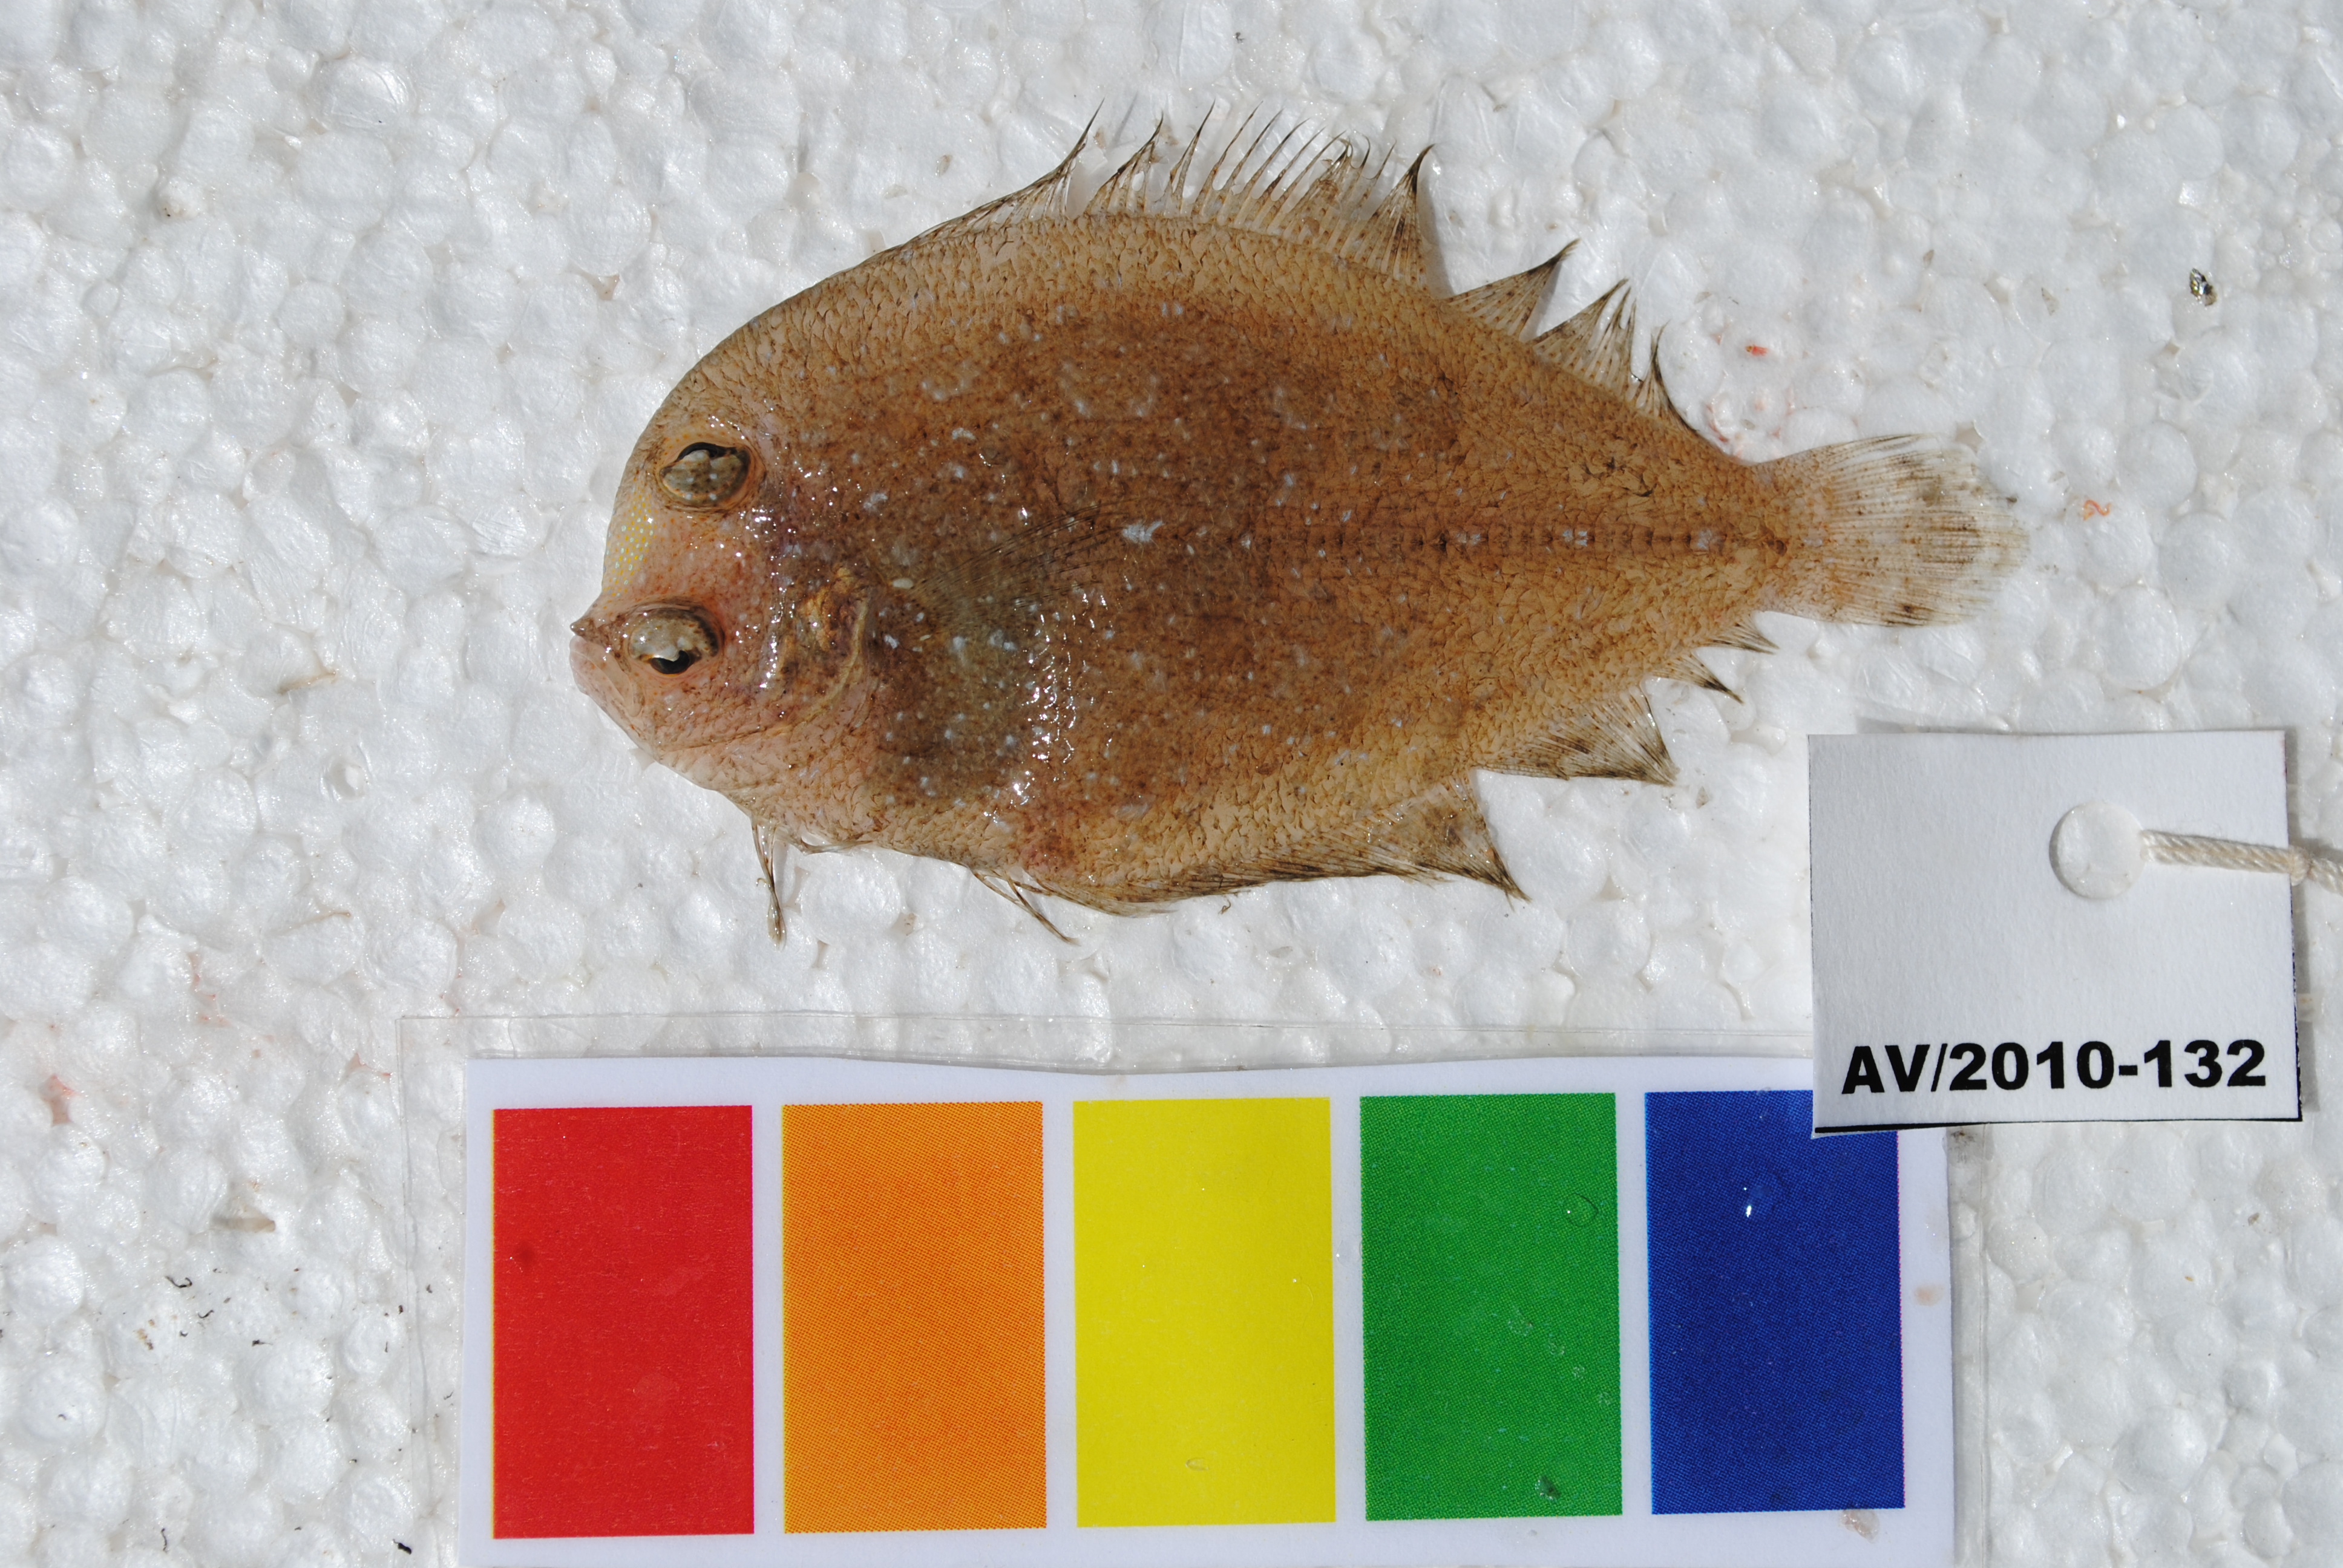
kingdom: Animalia
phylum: Chordata
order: Pleuronectiformes
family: Bothidae
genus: Engyprosopon
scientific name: Engyprosopon
